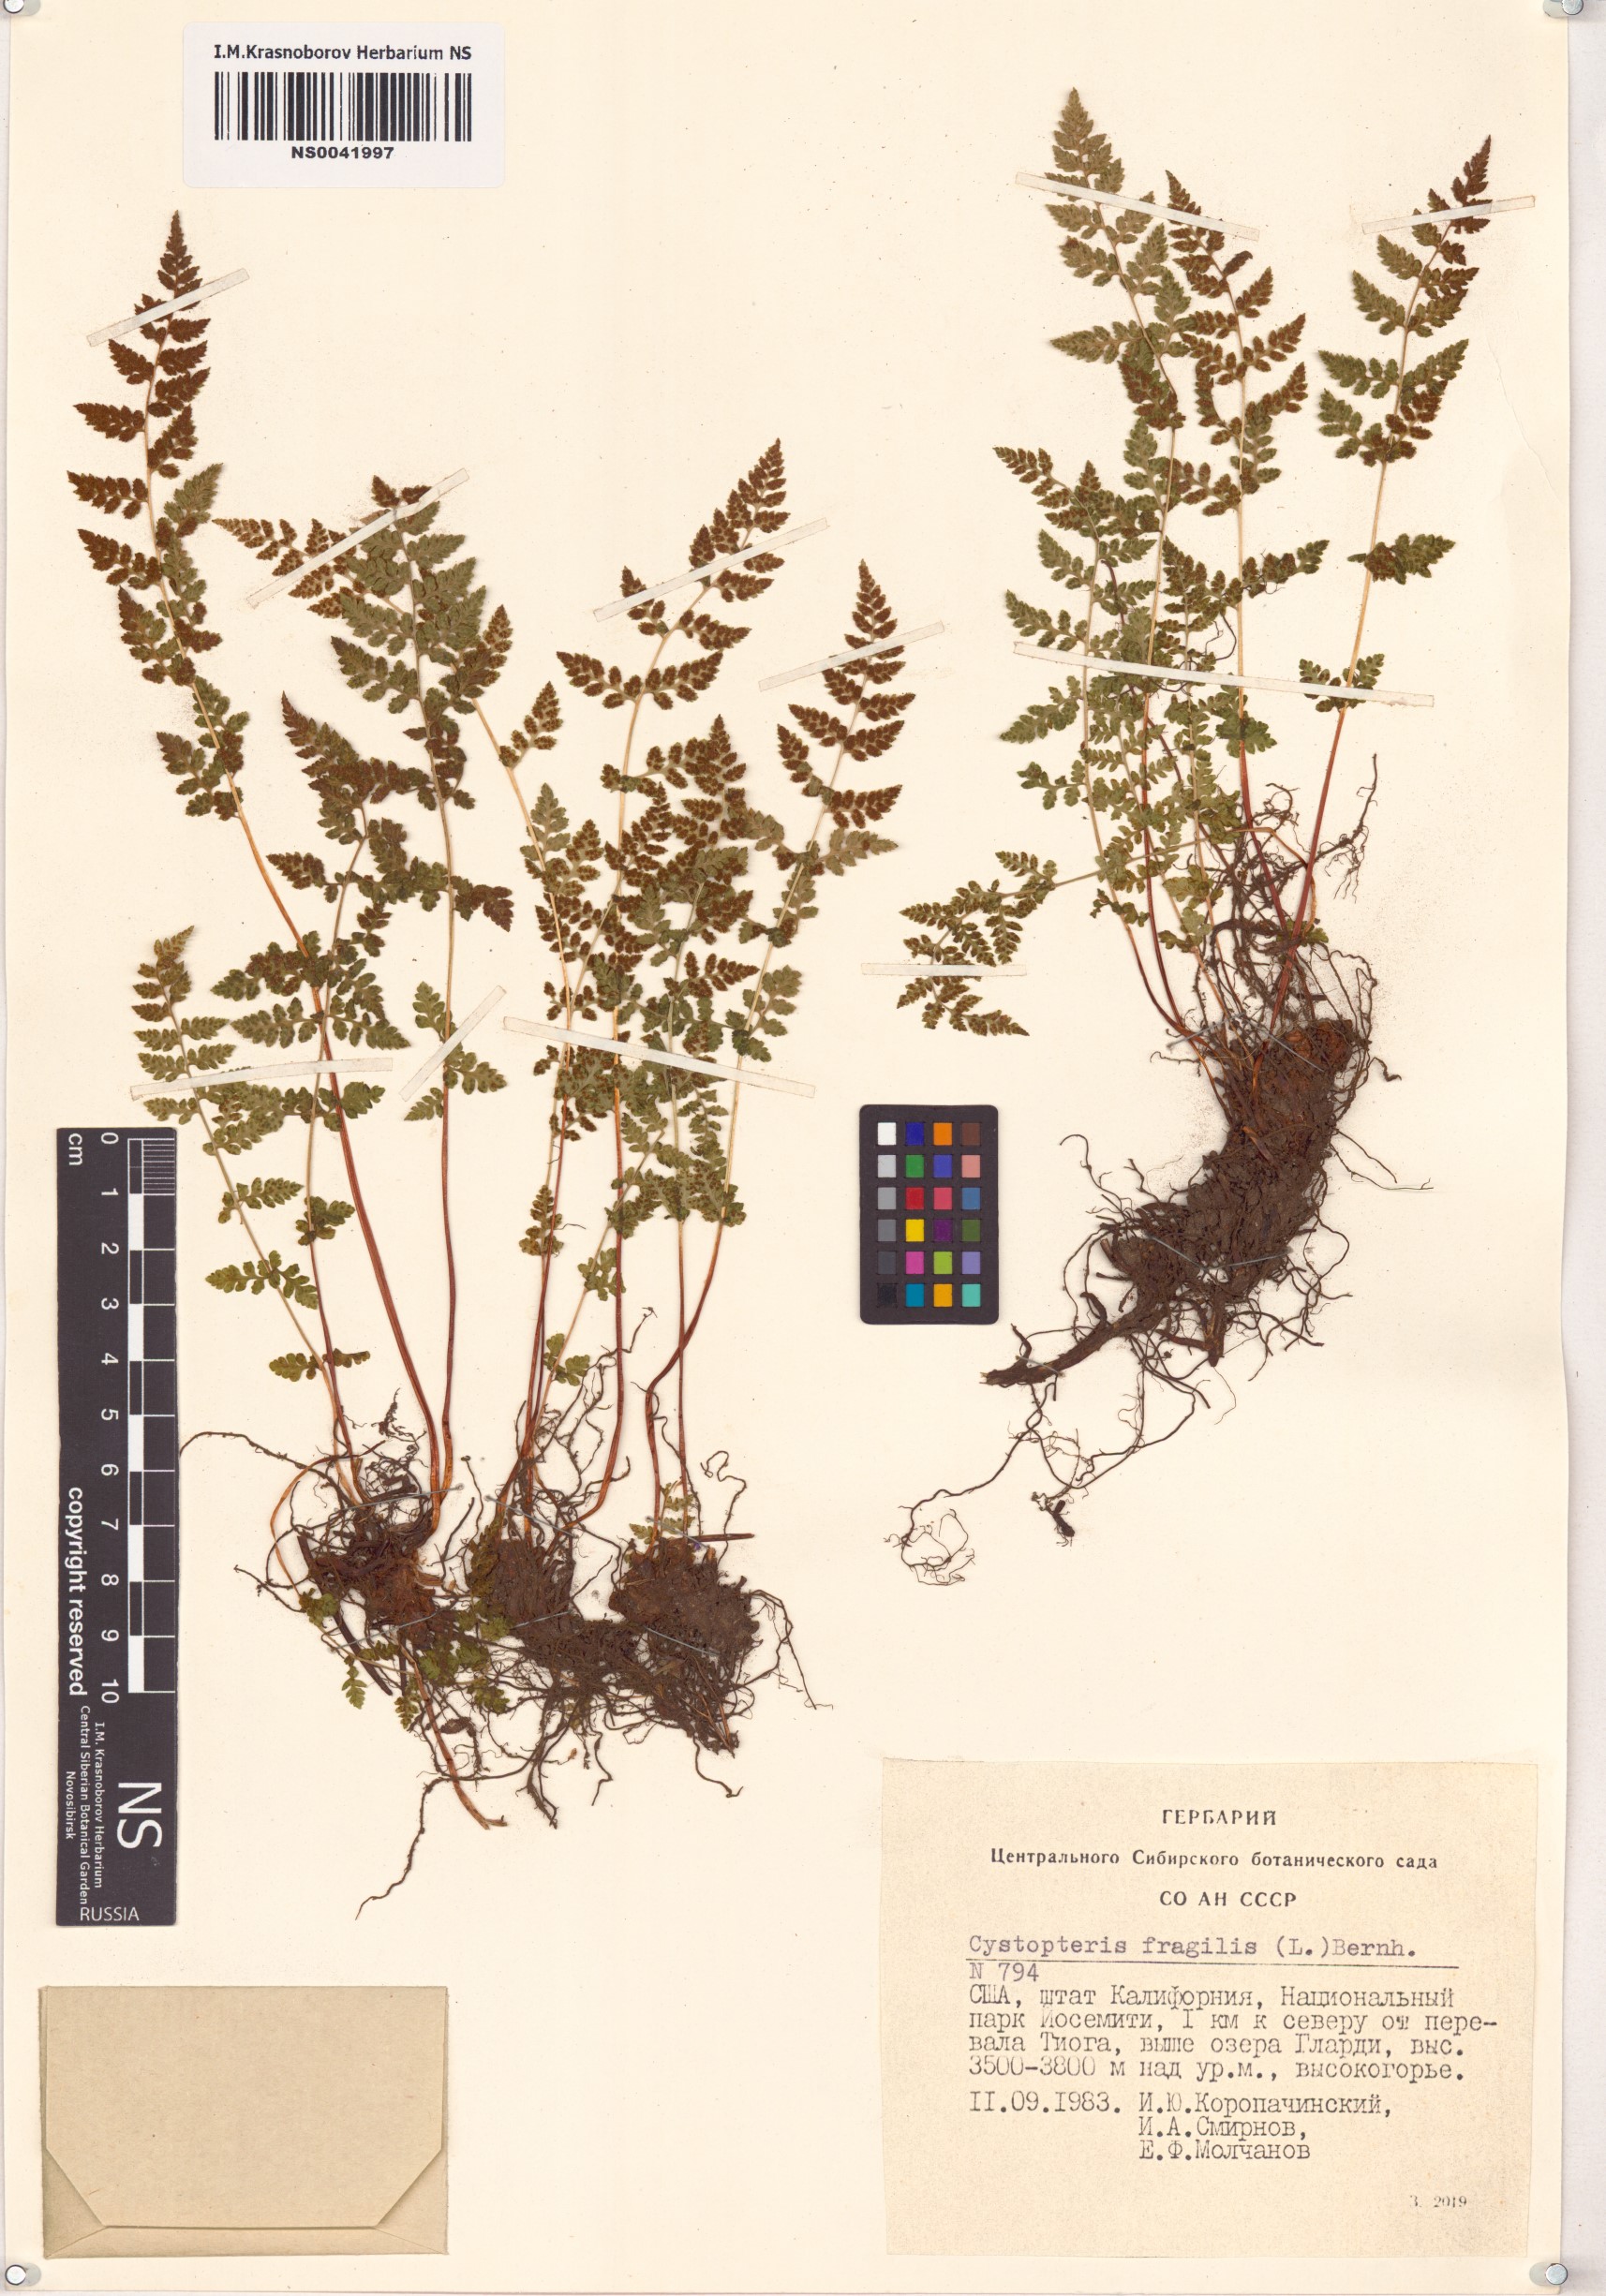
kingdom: Plantae
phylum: Tracheophyta
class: Polypodiopsida
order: Polypodiales
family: Cystopteridaceae
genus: Cystopteris
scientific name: Cystopteris fragilis
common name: Brittle bladder fern
